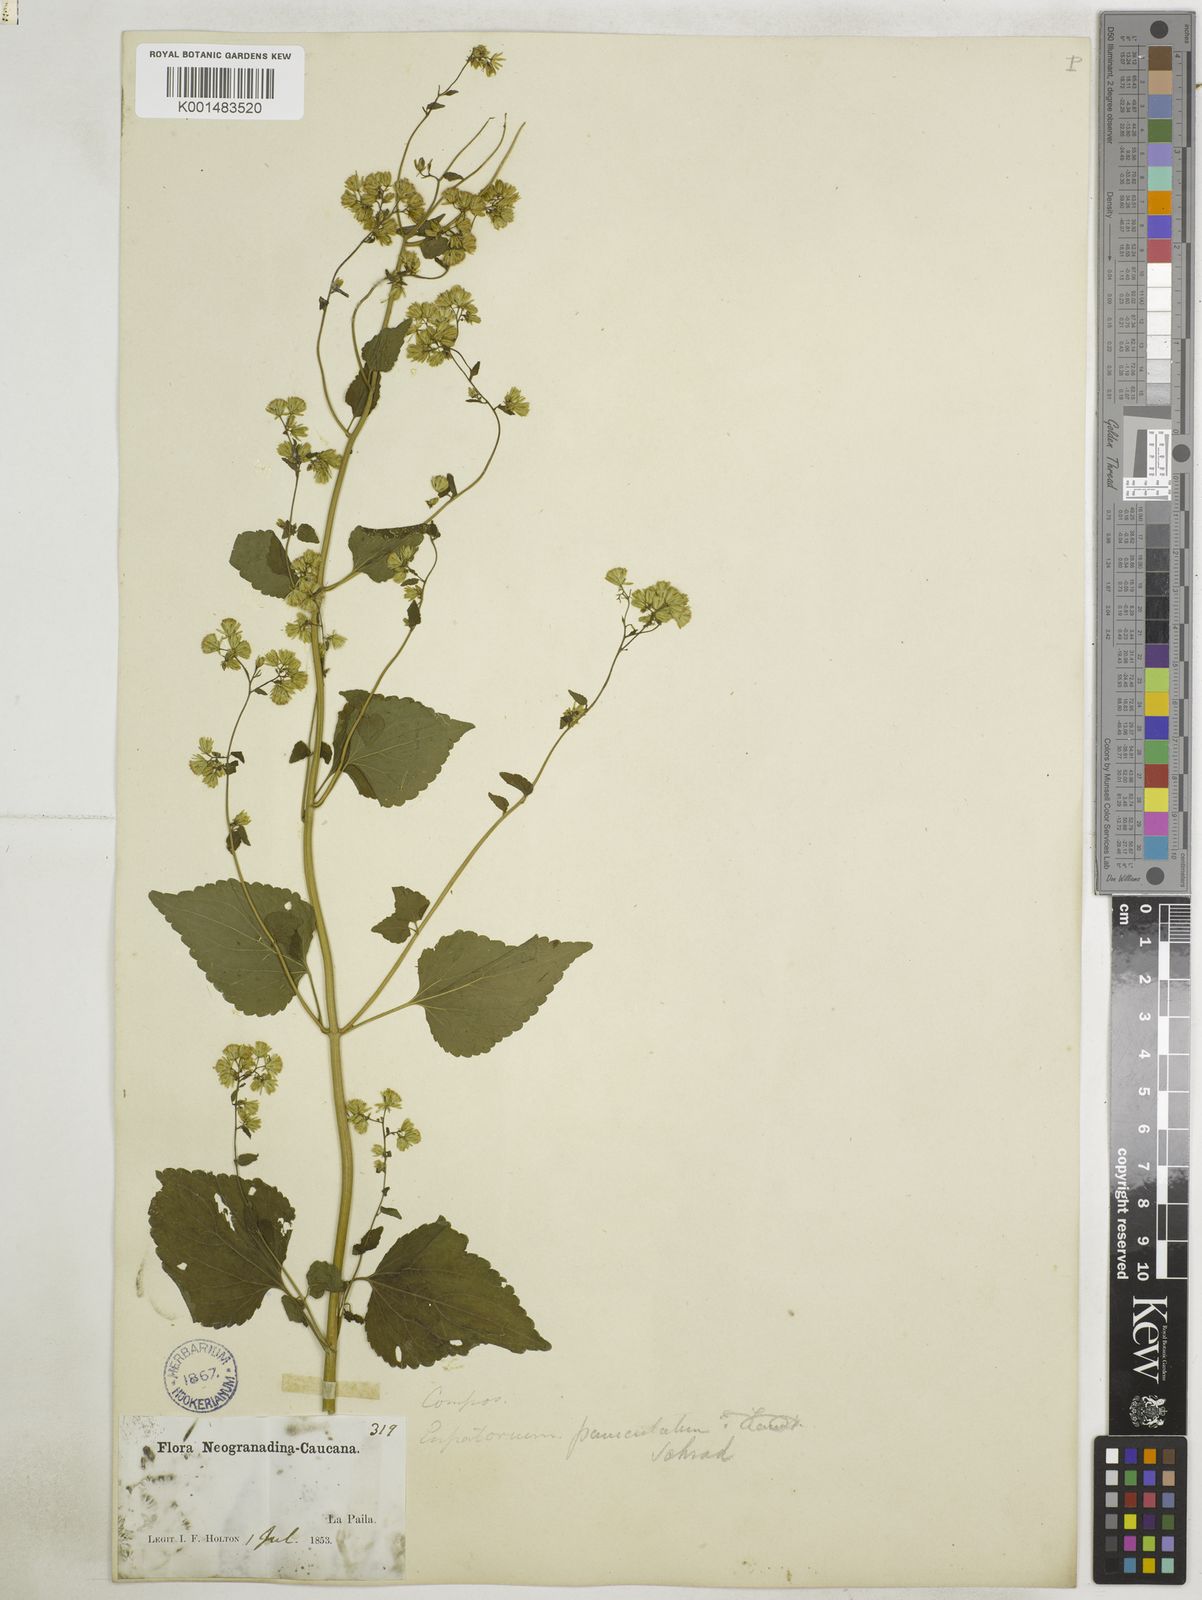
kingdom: Plantae
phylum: Tracheophyta
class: Magnoliopsida
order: Asterales
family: Asteraceae
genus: Fleischmannia
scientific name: Fleischmannia microstemon
